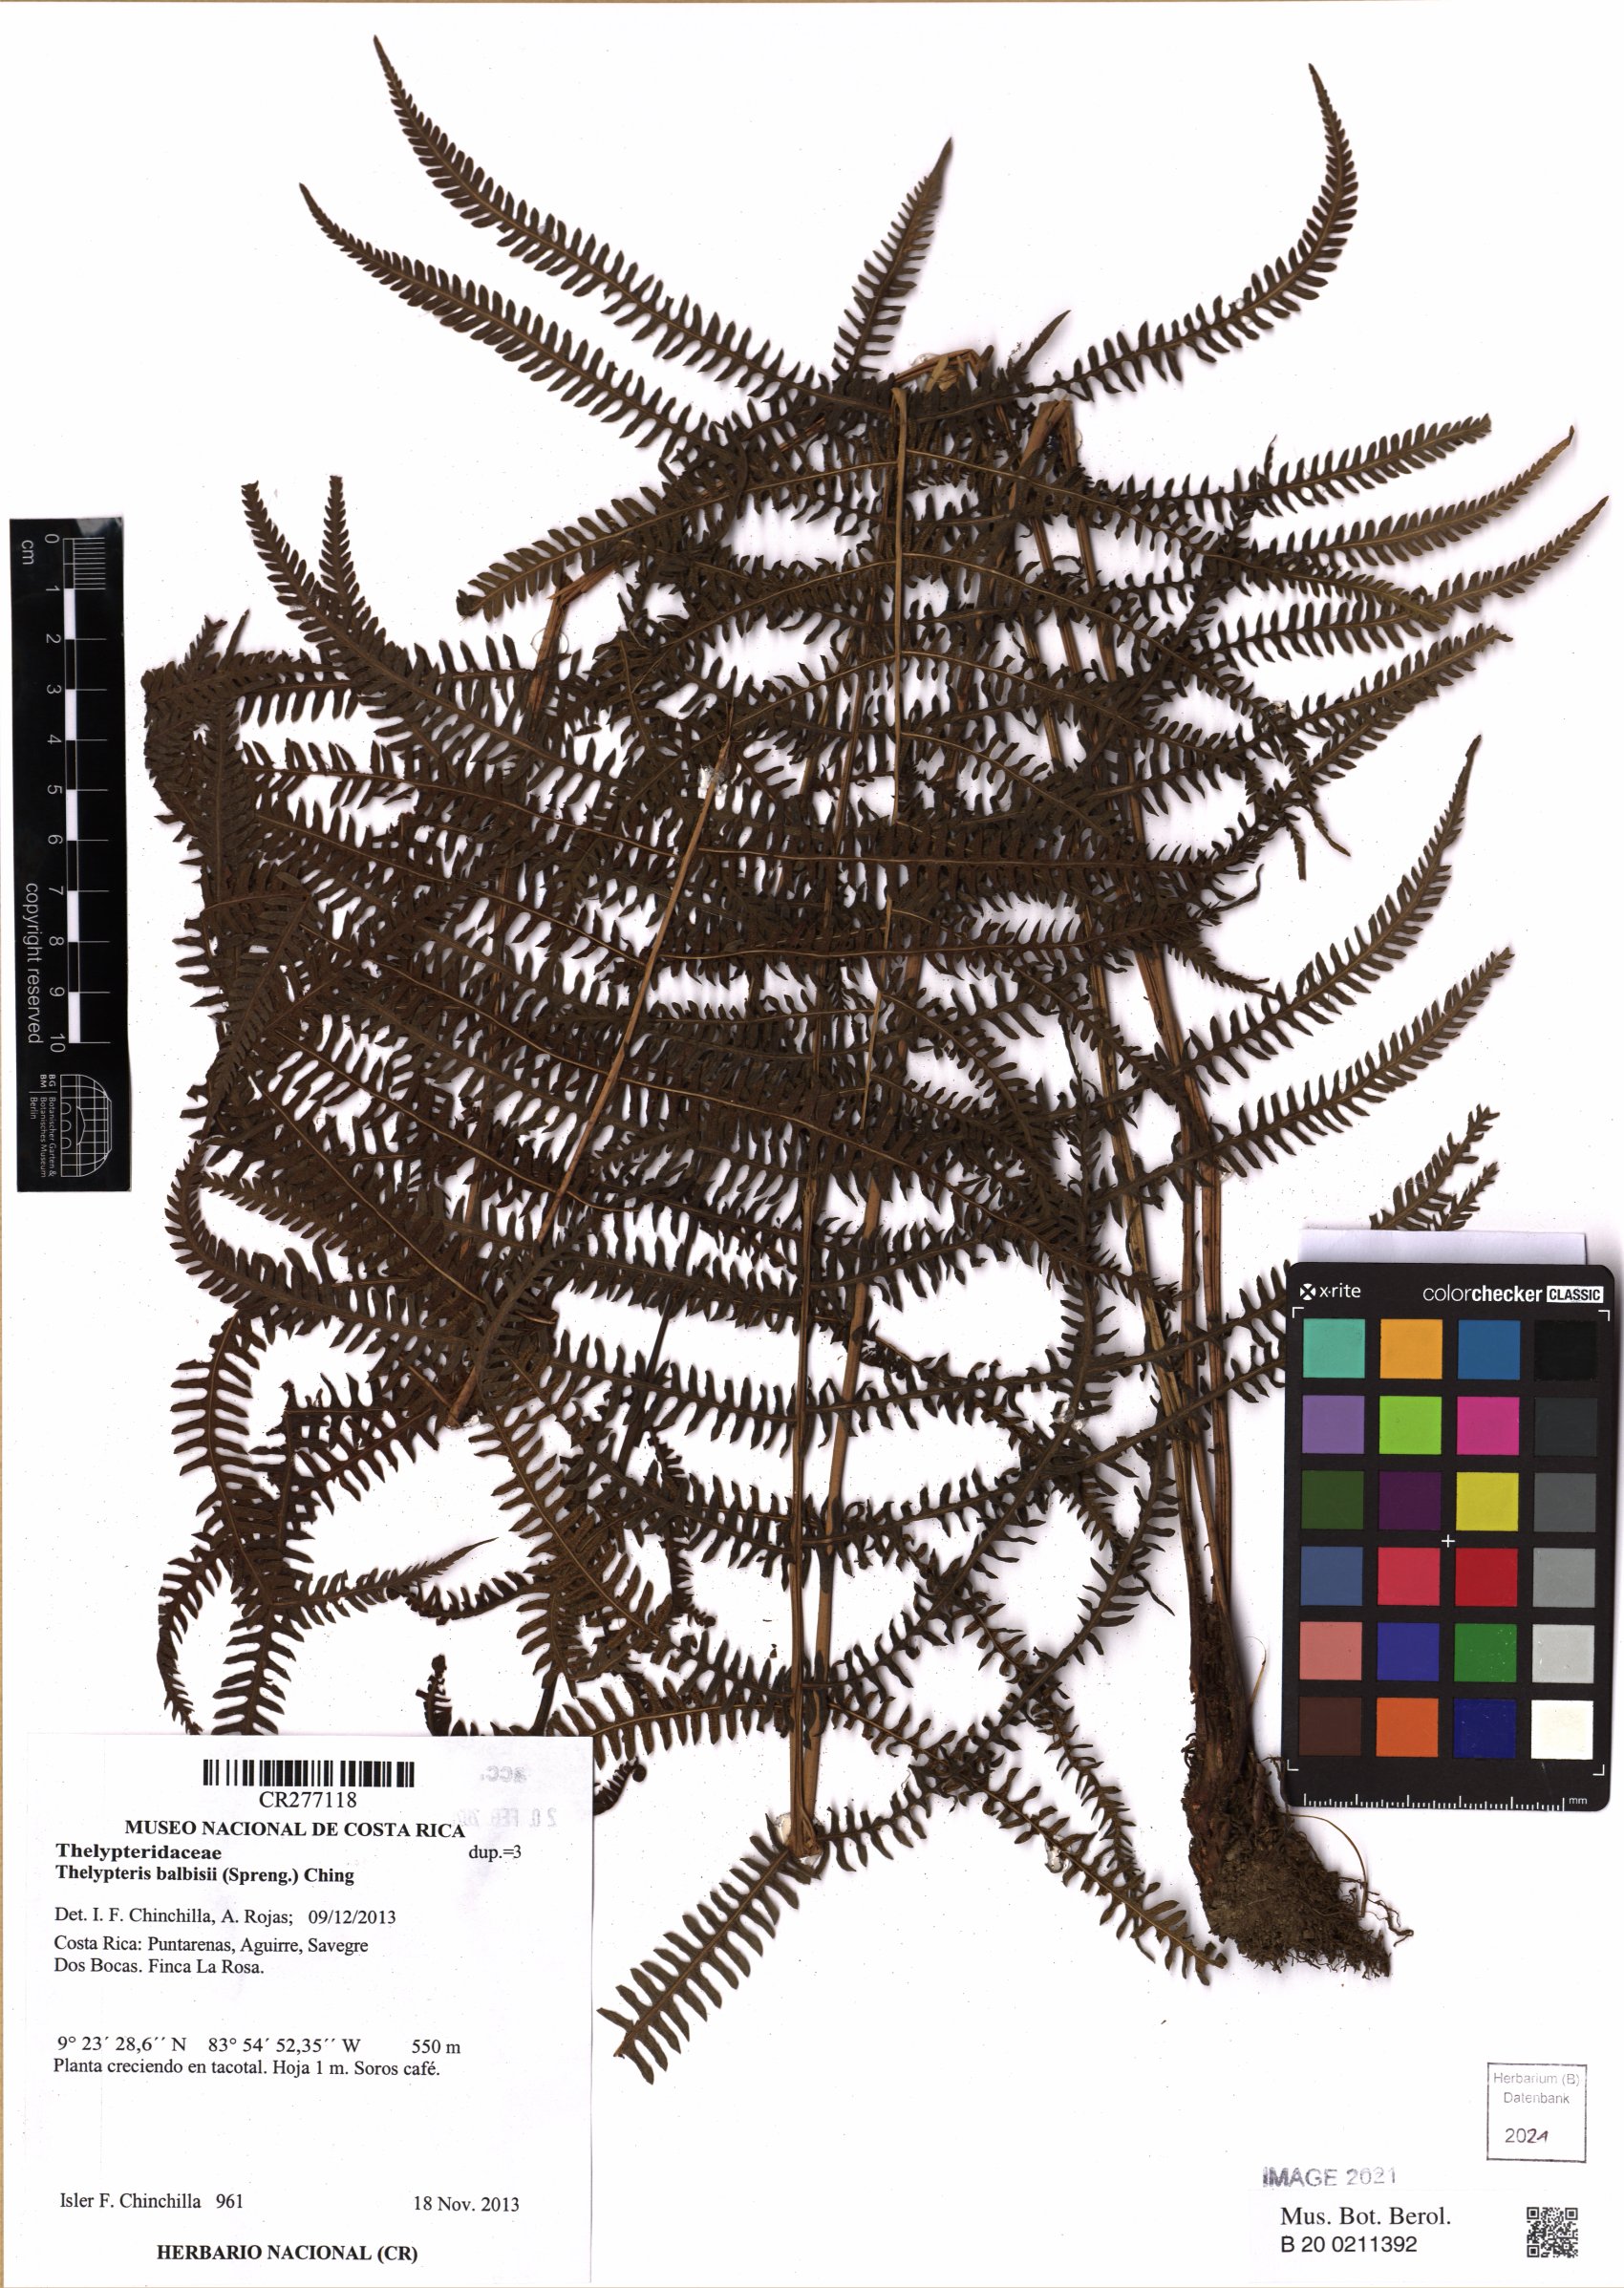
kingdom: Plantae
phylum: Tracheophyta
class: Polypodiopsida
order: Polypodiales
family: Thelypteridaceae
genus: Amauropelta
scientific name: Amauropelta balbisii
